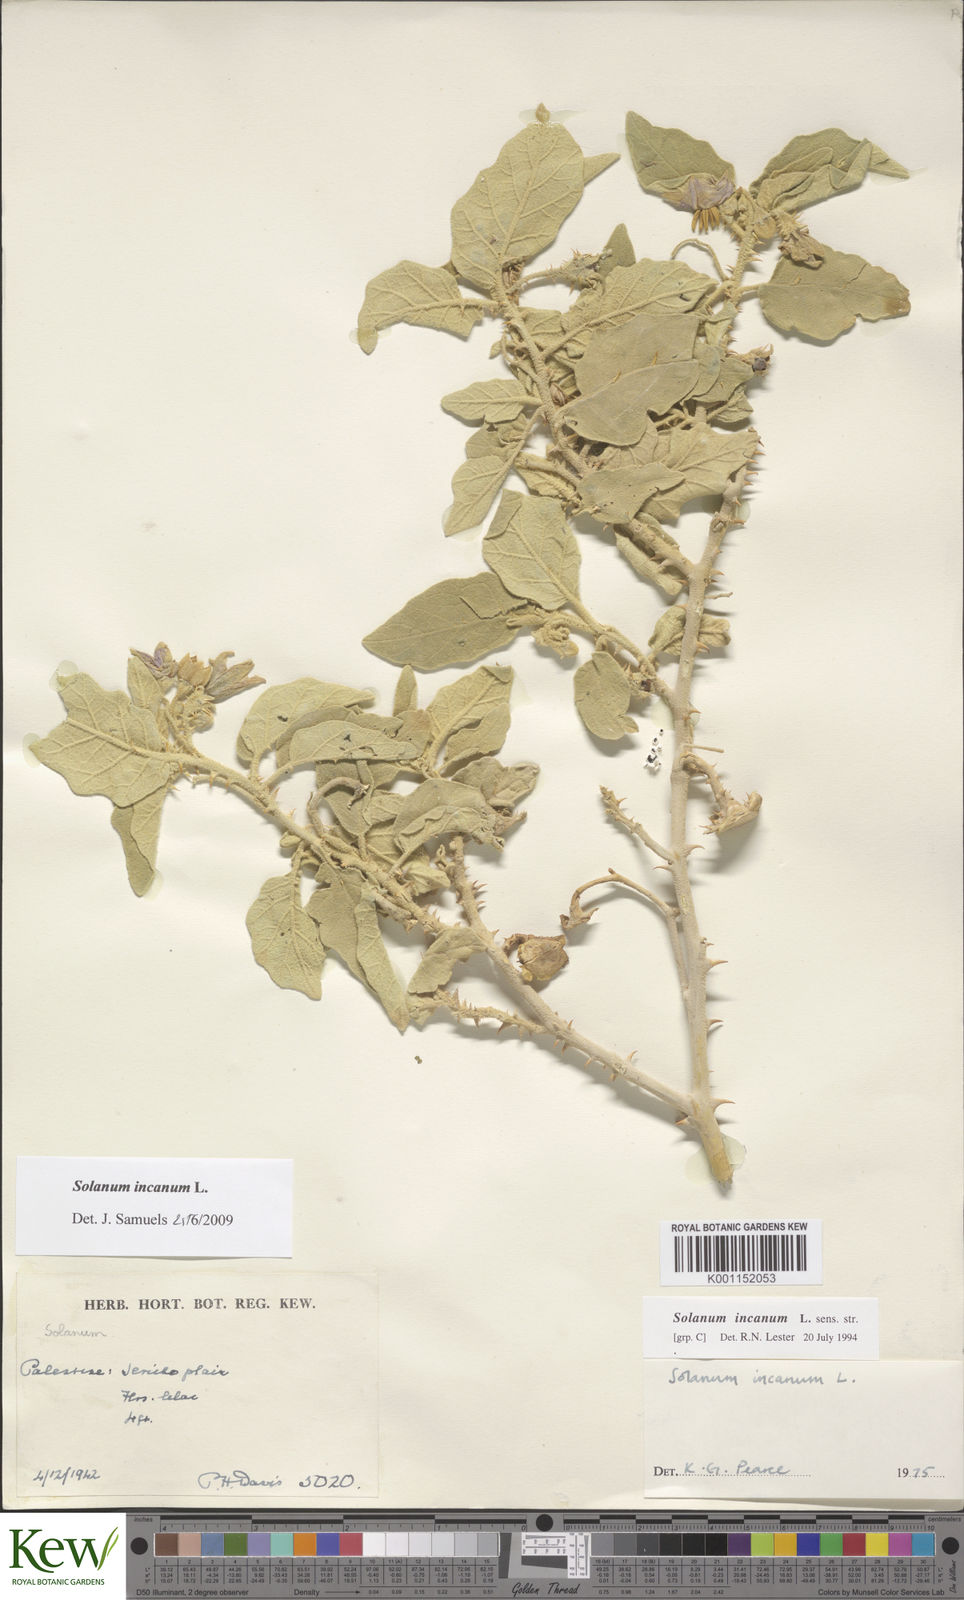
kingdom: Plantae
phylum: Tracheophyta
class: Magnoliopsida
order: Solanales
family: Solanaceae
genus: Solanum
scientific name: Solanum incanum
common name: Bitter apple
